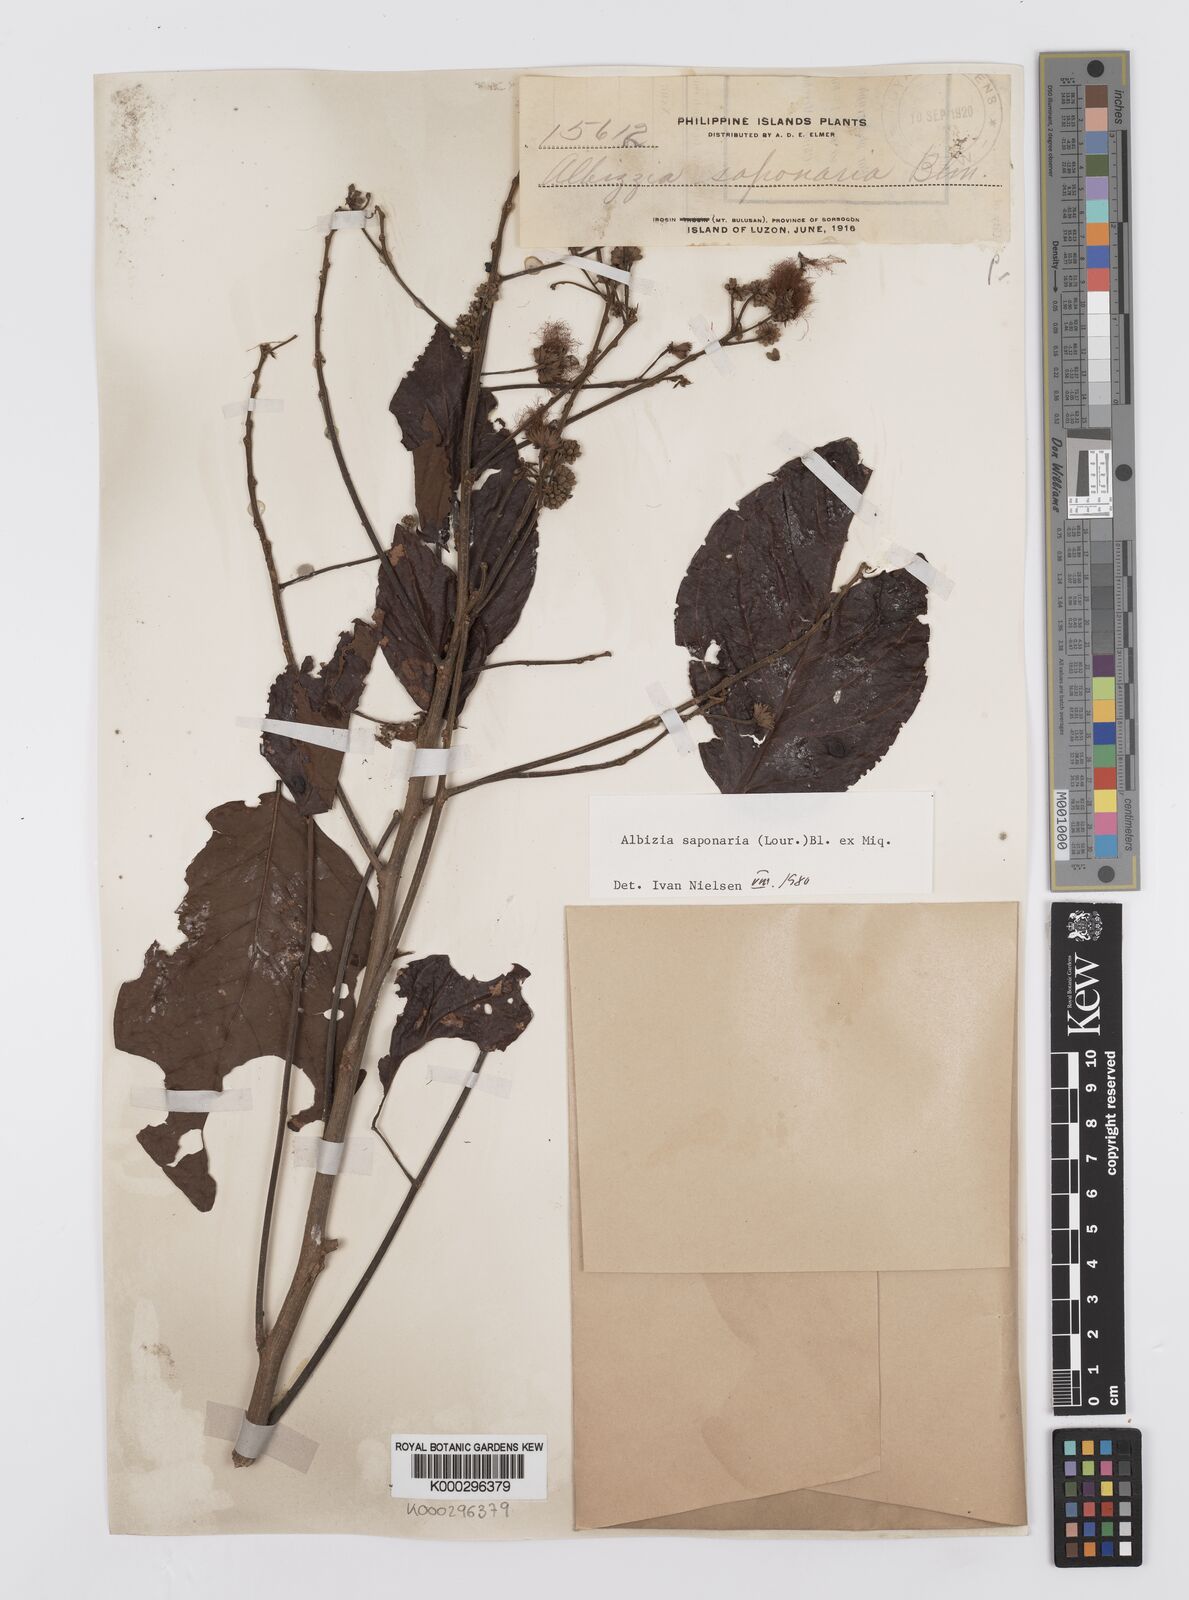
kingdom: Plantae
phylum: Tracheophyta
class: Magnoliopsida
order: Fabales
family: Fabaceae
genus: Albizia
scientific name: Albizia saponaria
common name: Whiteflower albizia
